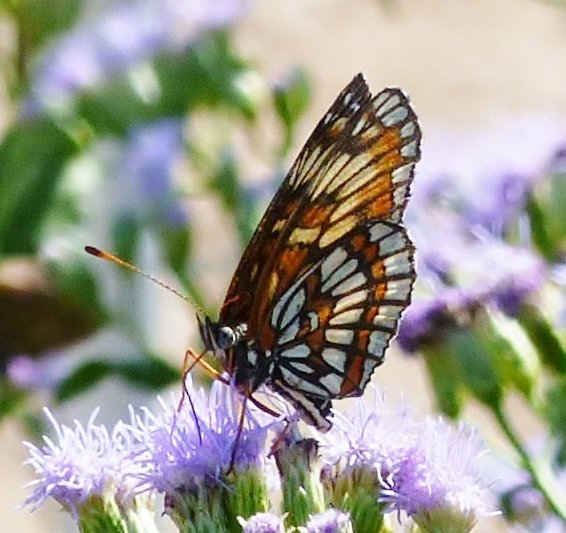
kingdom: Animalia
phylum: Arthropoda
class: Insecta
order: Lepidoptera
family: Nymphalidae
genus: Thessalia
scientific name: Thessalia theona
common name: Theona Checkerspot
